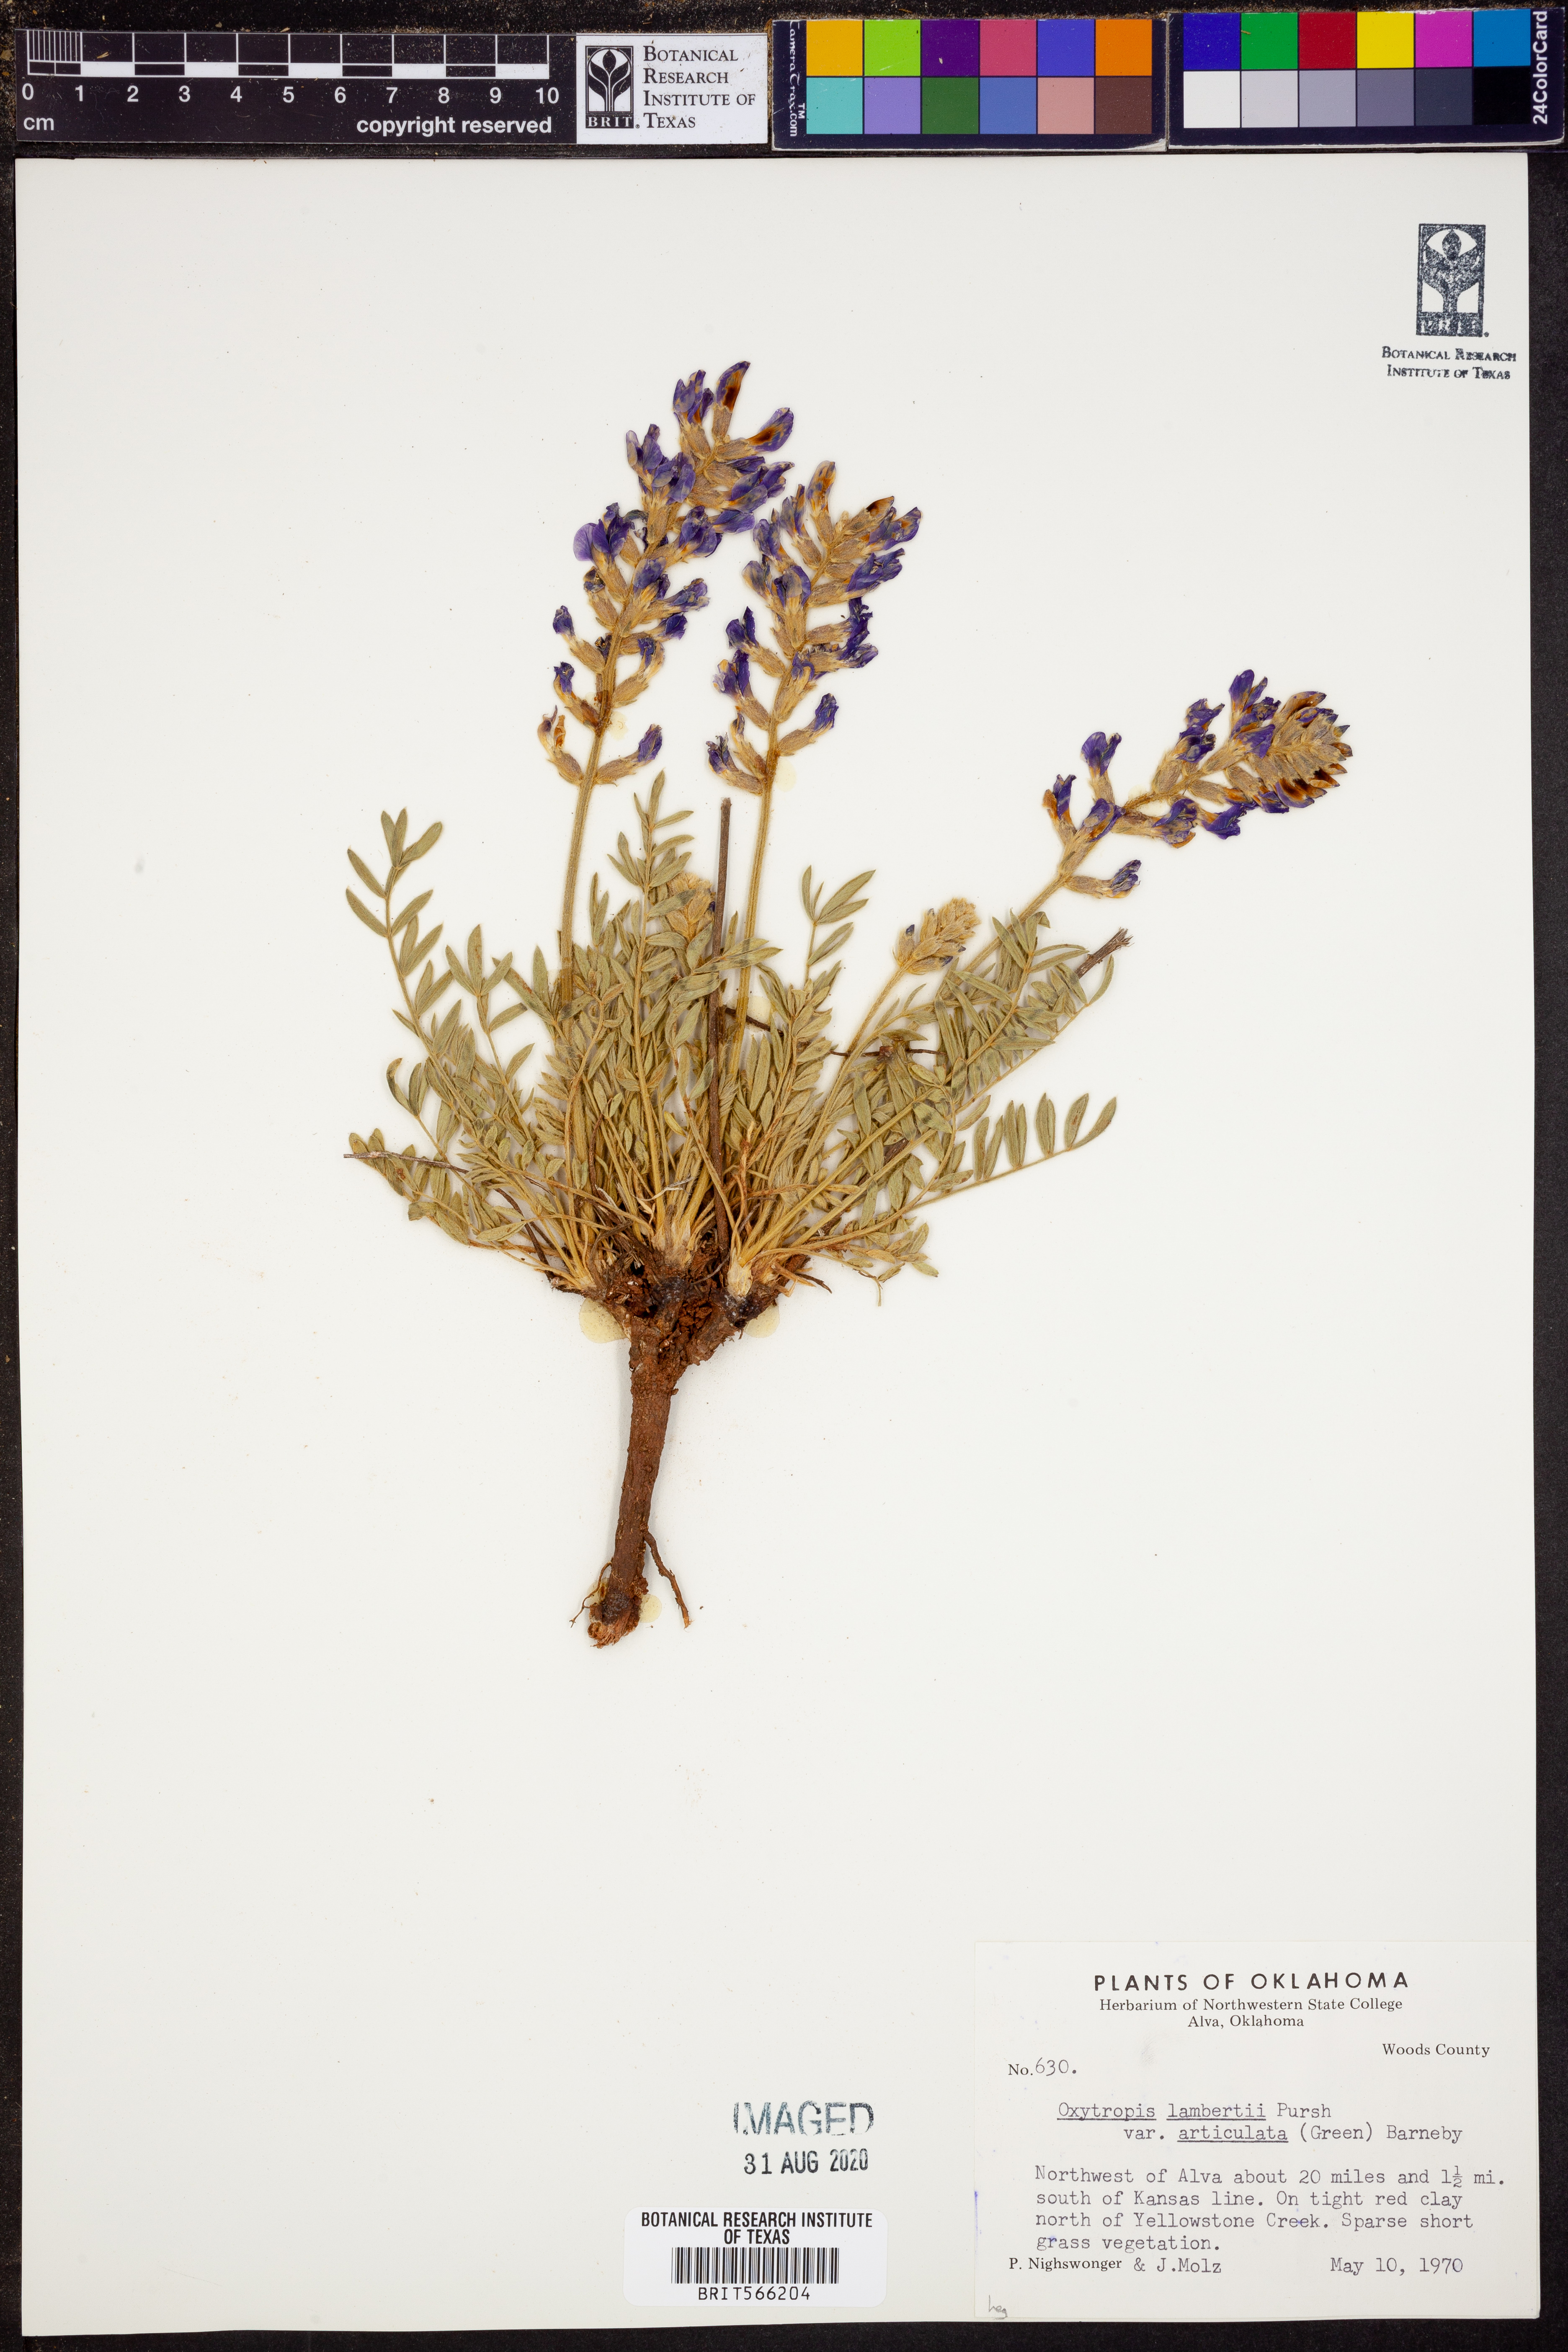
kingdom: Plantae
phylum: Tracheophyta
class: Magnoliopsida
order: Fabales
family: Fabaceae
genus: Oxytropis
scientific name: Oxytropis lambertii
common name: Purple locoweed
